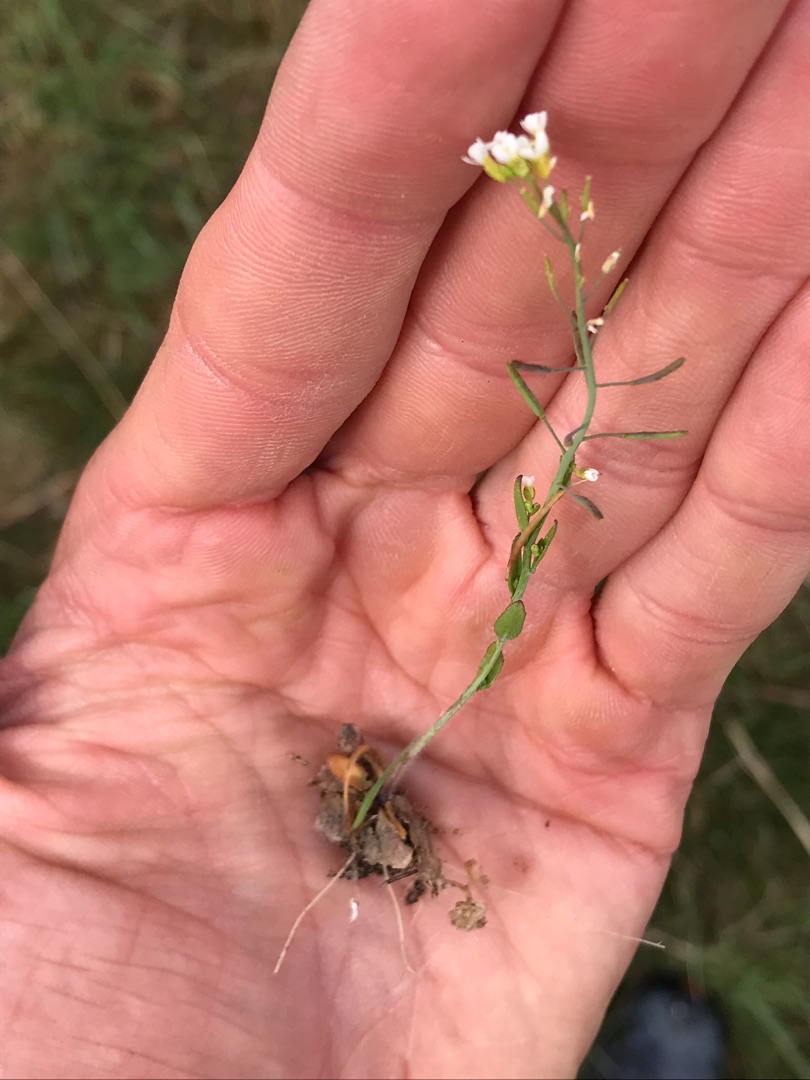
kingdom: Plantae
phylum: Tracheophyta
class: Magnoliopsida
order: Brassicales
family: Brassicaceae
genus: Arabidopsis
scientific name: Arabidopsis thaliana
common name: Almindelig gåsemad
